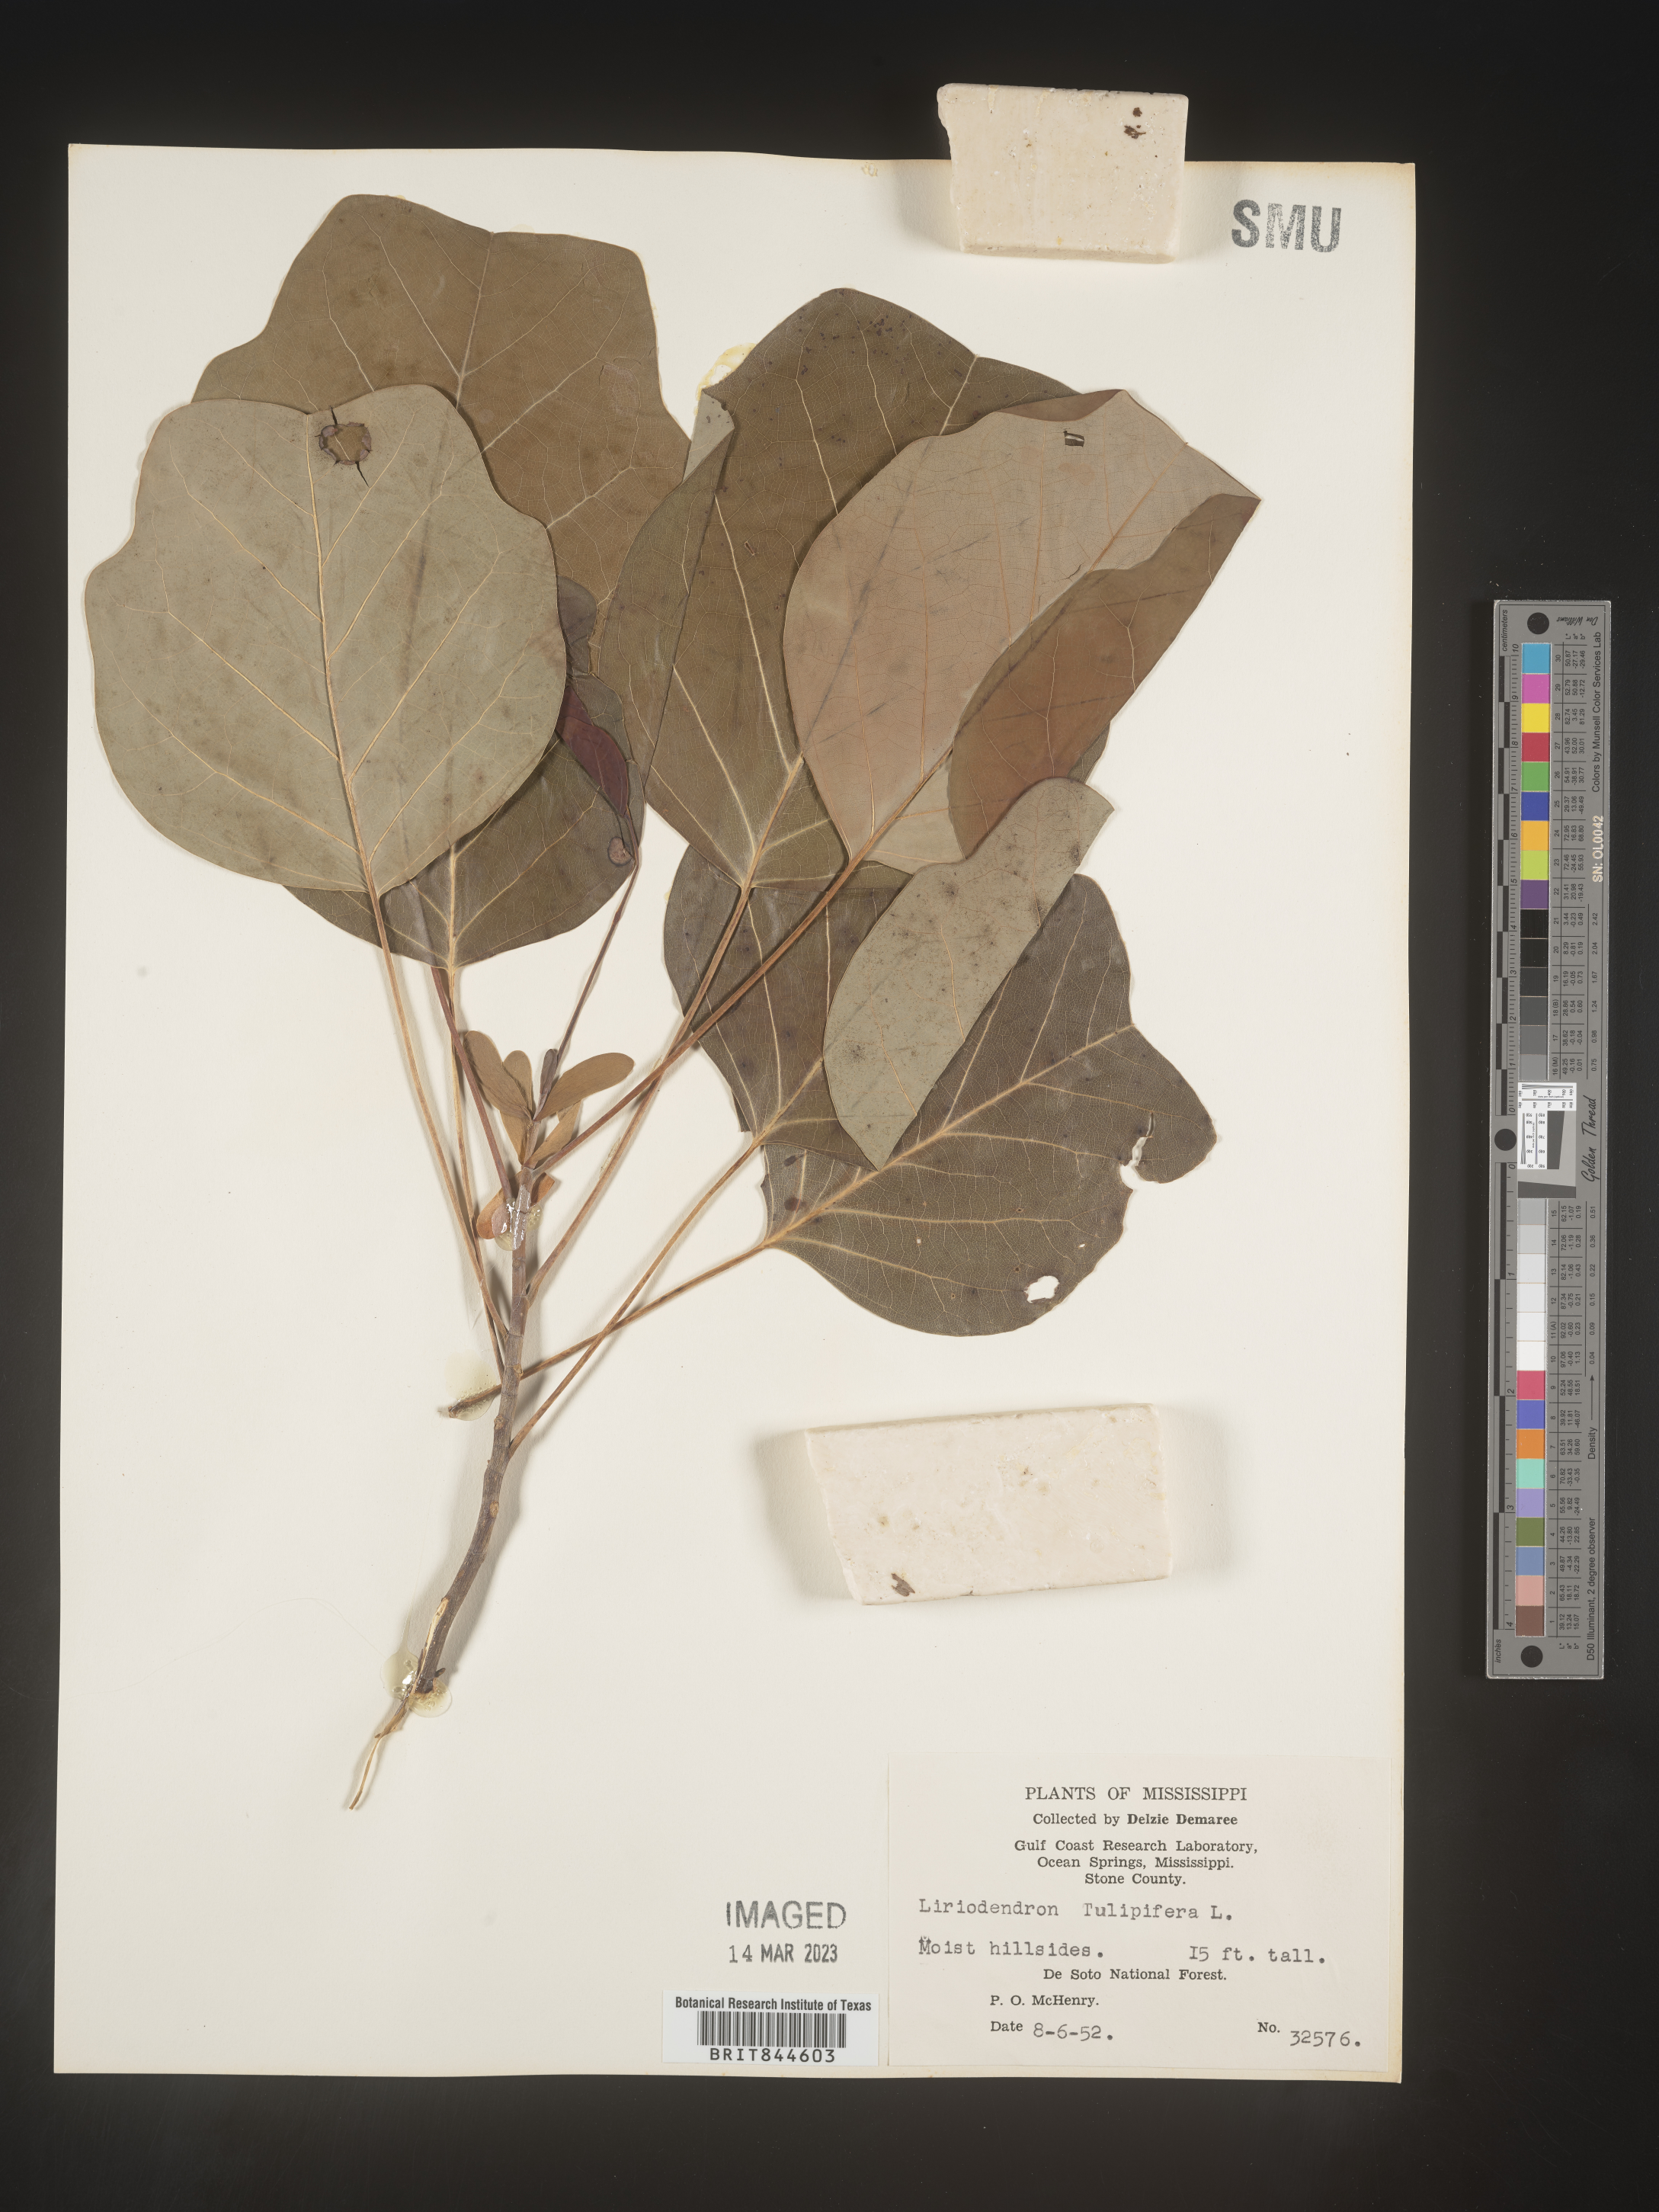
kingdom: Plantae
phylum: Tracheophyta
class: Magnoliopsida
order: Magnoliales
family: Magnoliaceae
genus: Liriodendron
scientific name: Liriodendron tulipifera
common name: Tulip tree
